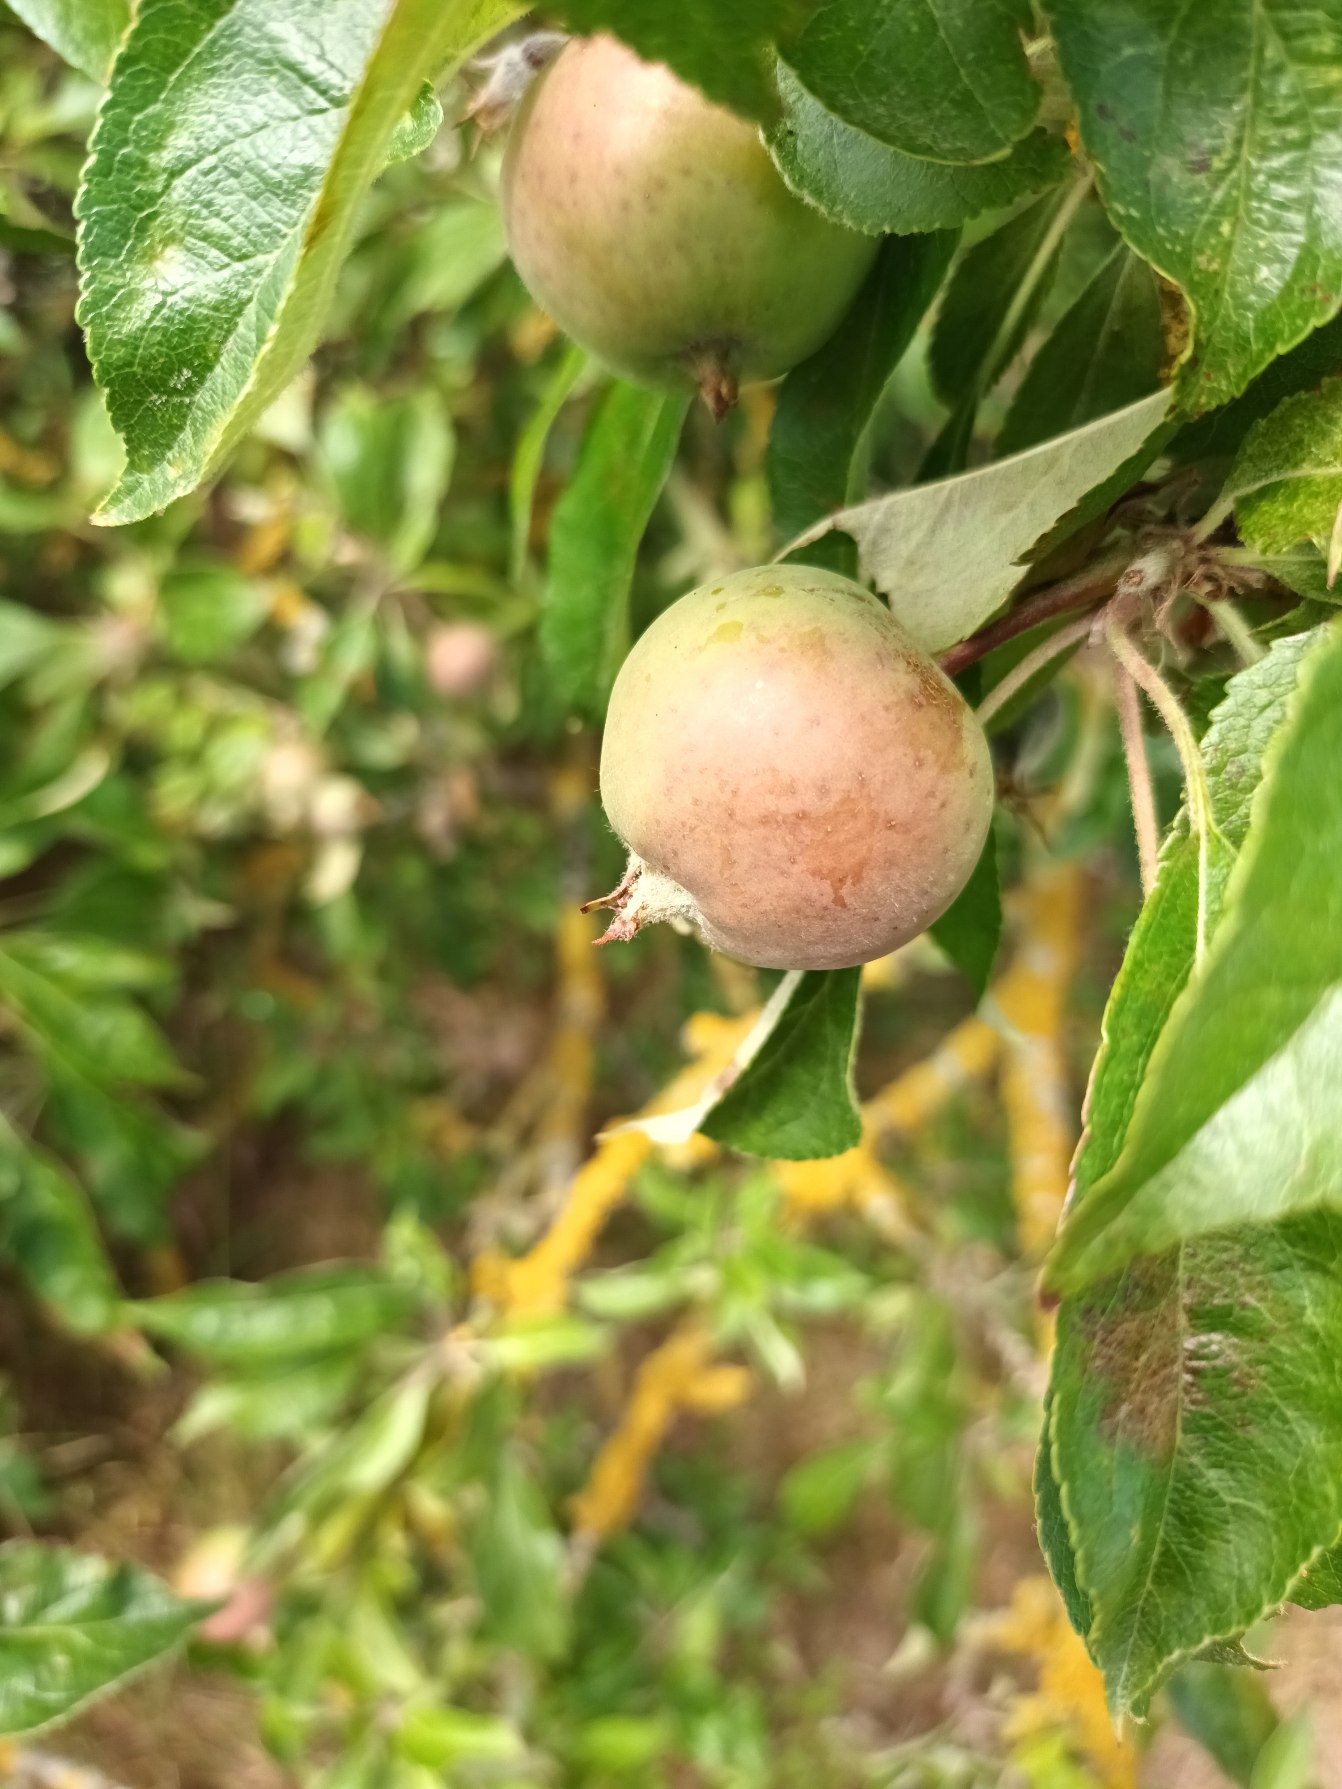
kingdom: Plantae
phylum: Tracheophyta
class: Magnoliopsida
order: Rosales
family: Rosaceae
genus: Malus
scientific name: Malus domestica
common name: Sød-æble
